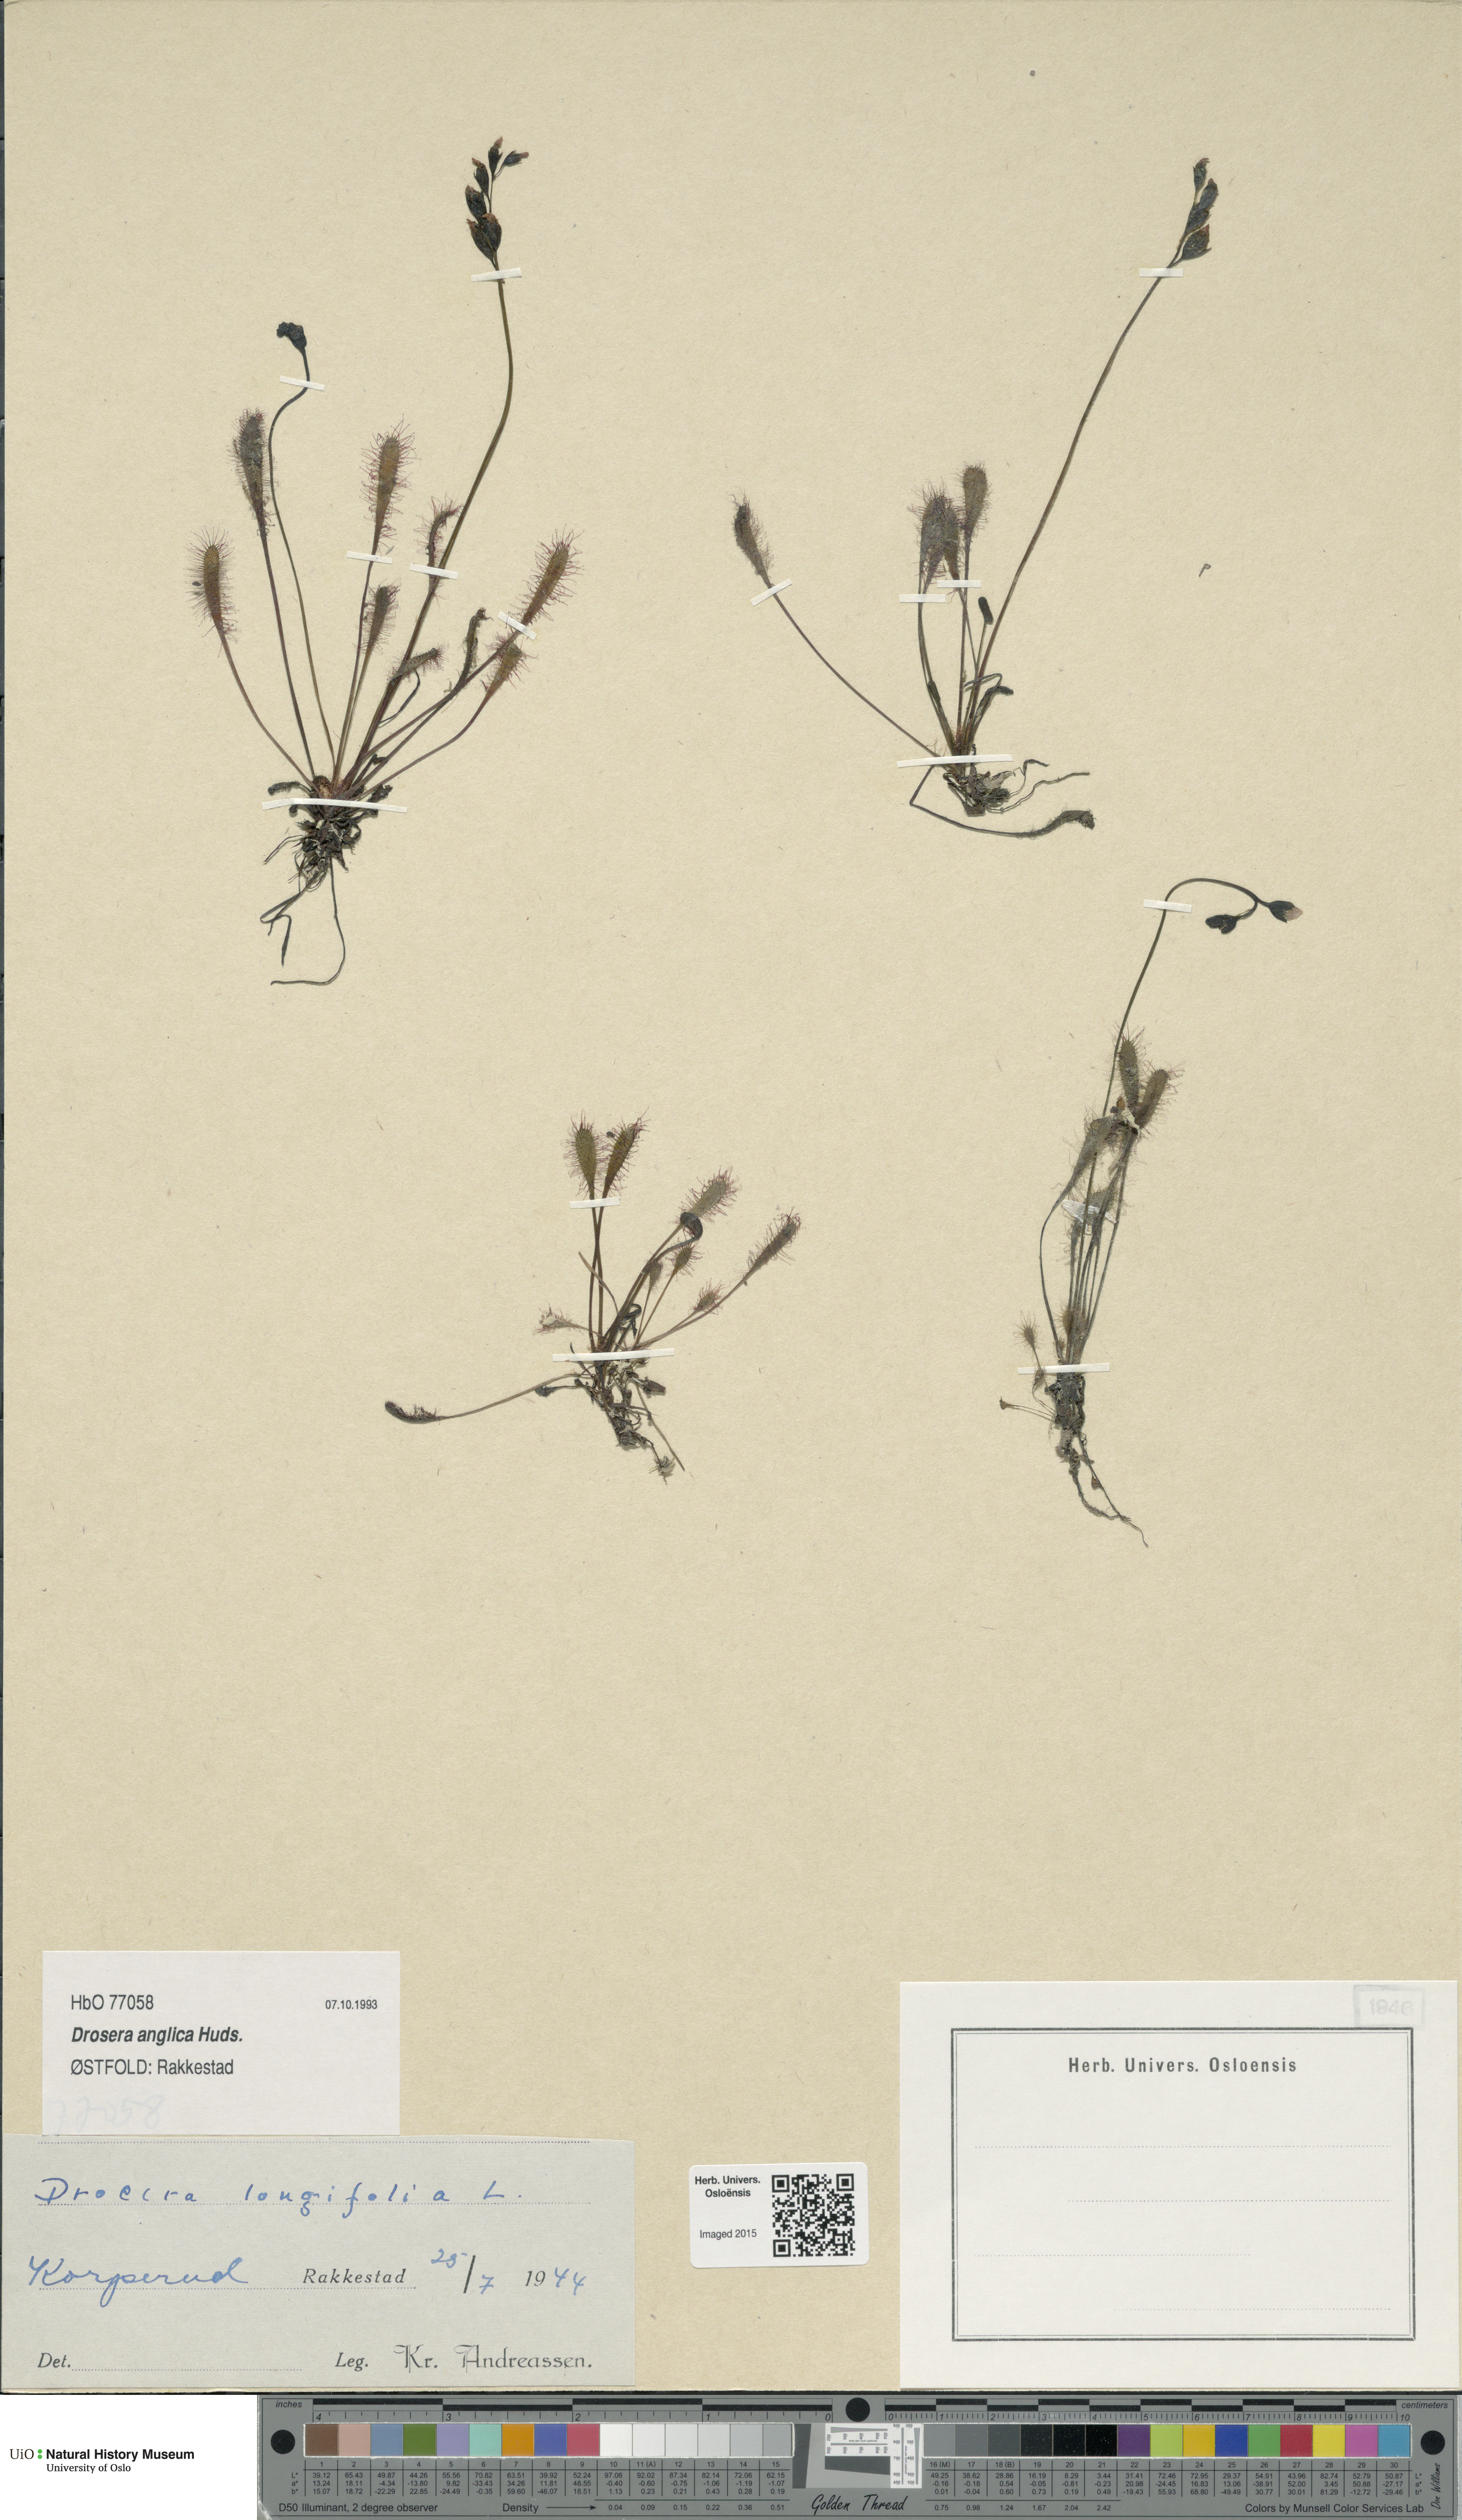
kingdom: Plantae
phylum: Tracheophyta
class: Magnoliopsida
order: Caryophyllales
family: Droseraceae
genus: Drosera
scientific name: Drosera anglica
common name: Great sundew
